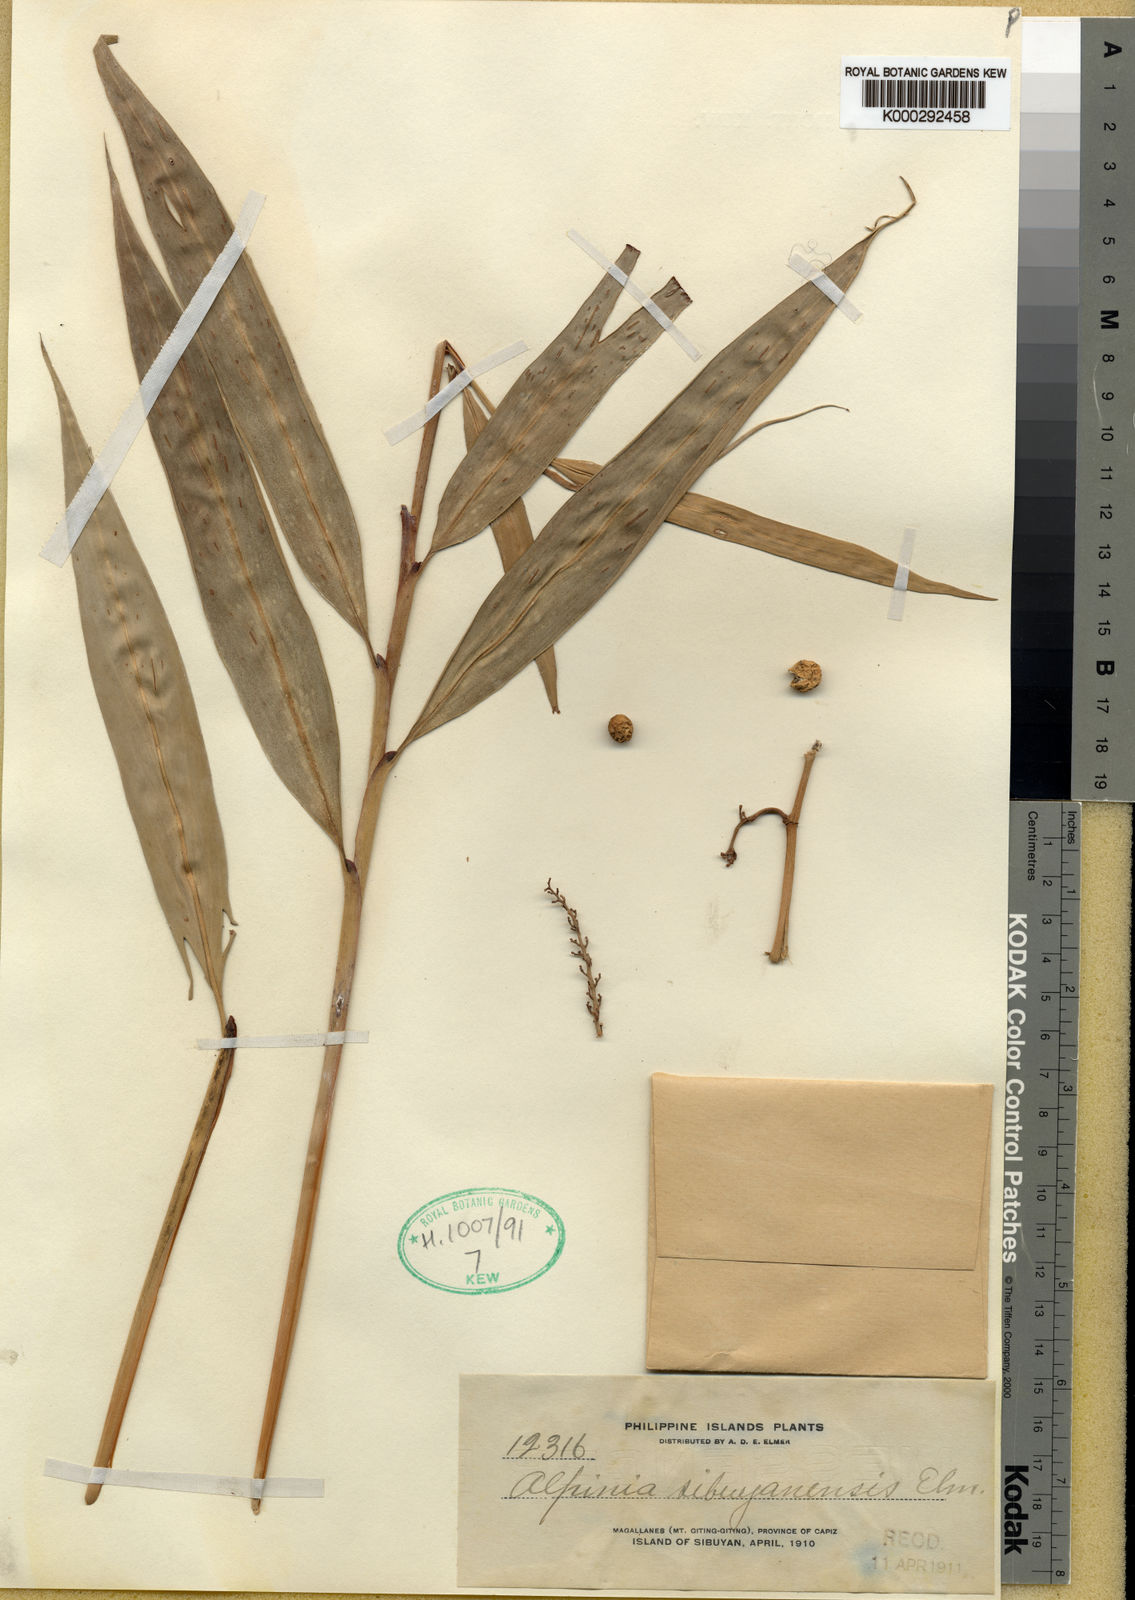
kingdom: Plantae
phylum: Tracheophyta
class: Liliopsida
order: Zingiberales
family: Zingiberaceae
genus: Alpinia
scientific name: Alpinia sibuyanensis
